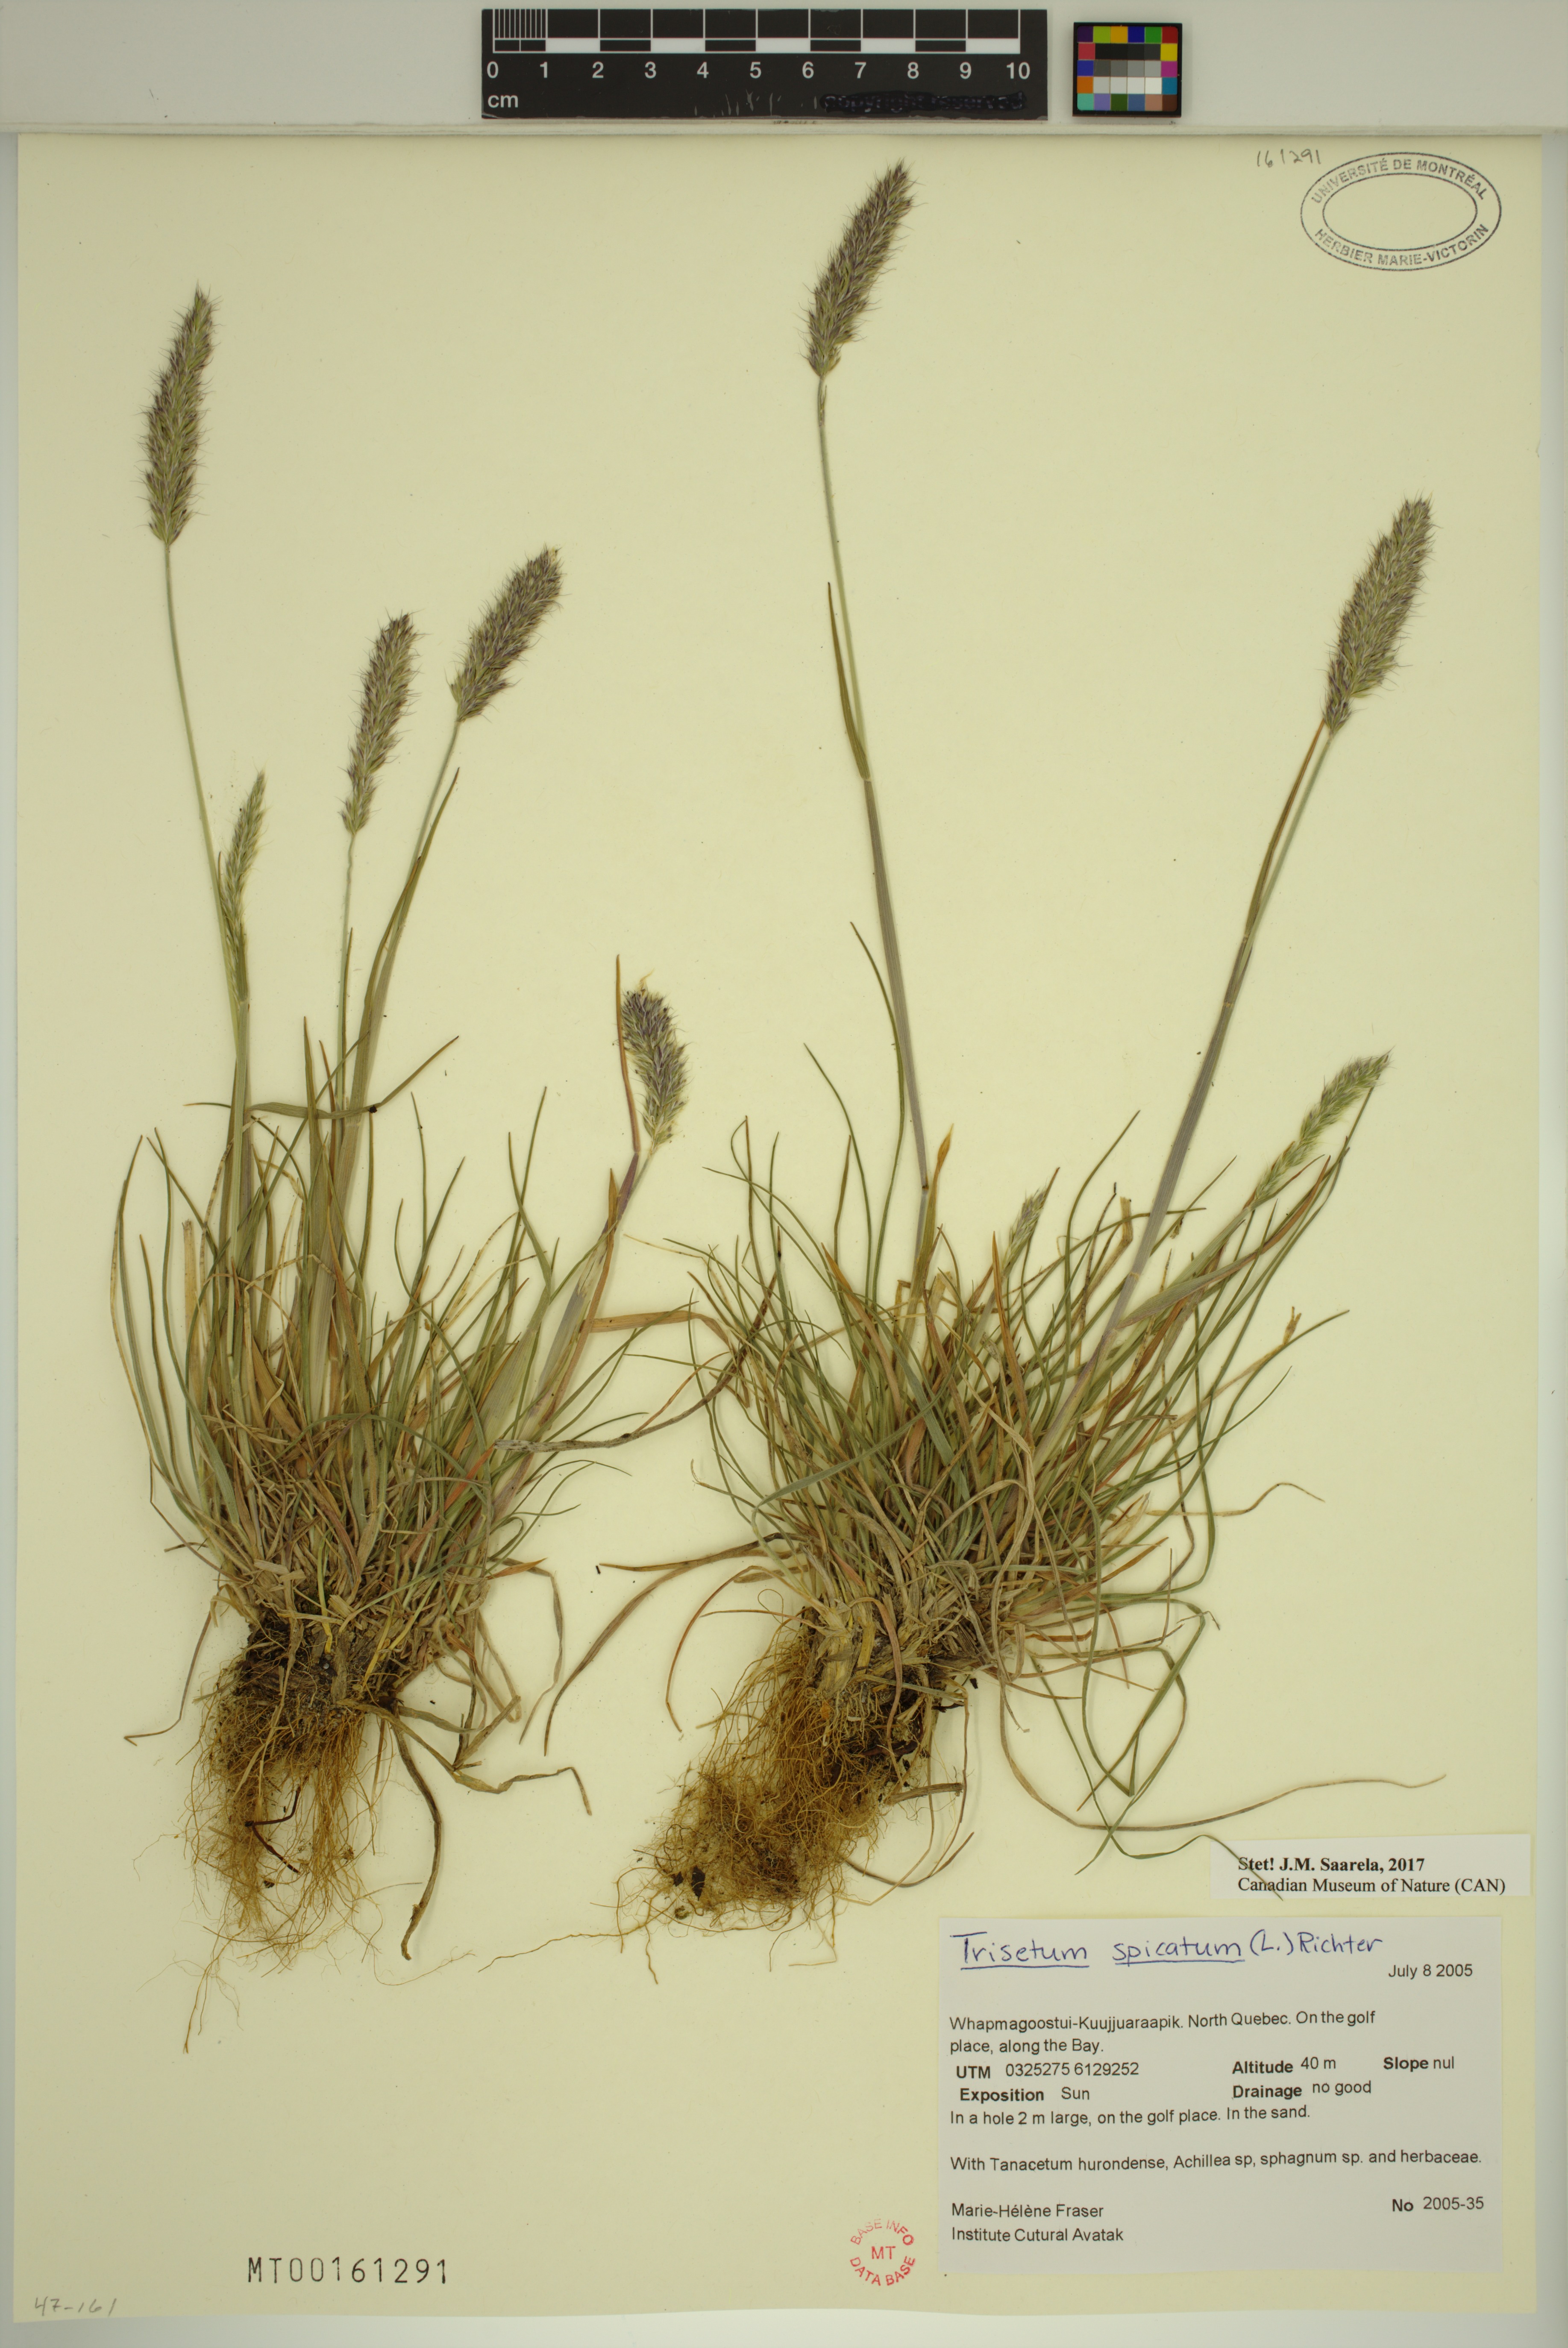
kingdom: Plantae
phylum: Tracheophyta
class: Liliopsida
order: Poales
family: Poaceae
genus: Koeleria
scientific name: Koeleria spicata
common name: Mountain trisetum
